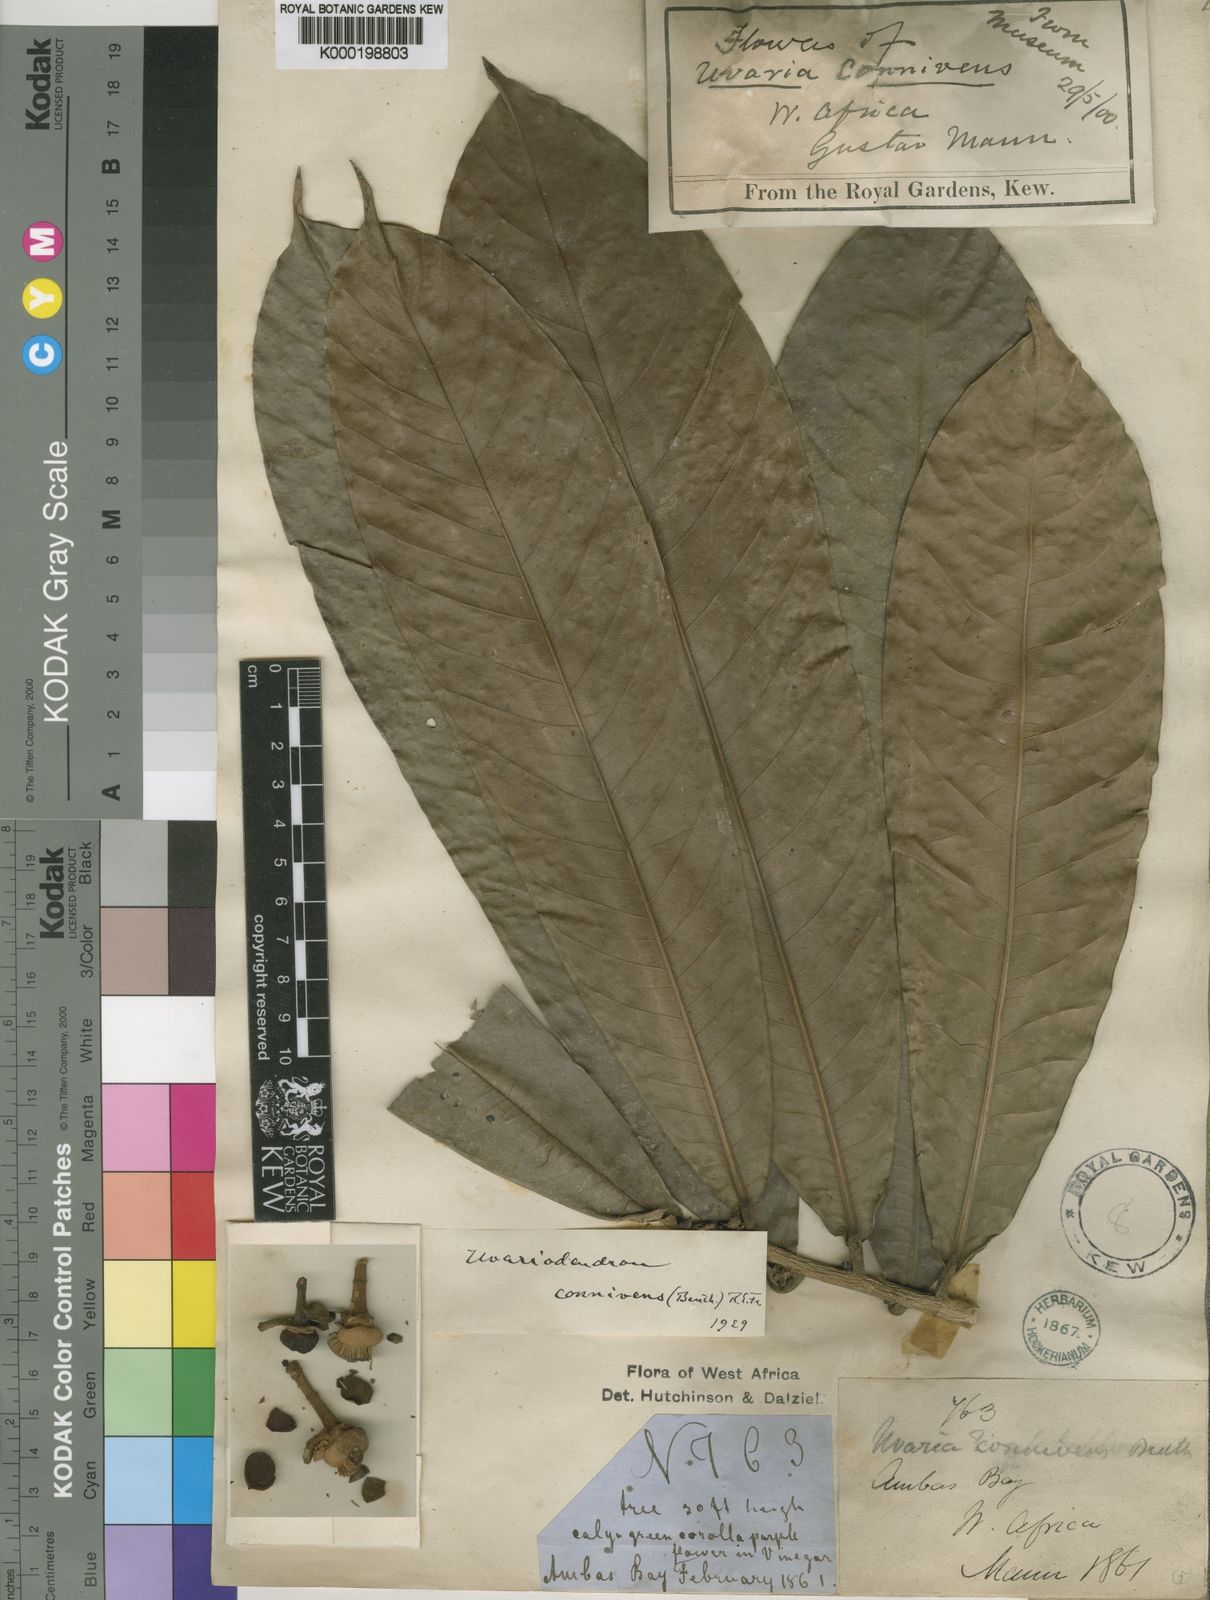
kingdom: Plantae
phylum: Tracheophyta
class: Magnoliopsida
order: Magnoliales
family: Annonaceae
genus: Uvariodendron
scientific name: Uvariodendron connivens
